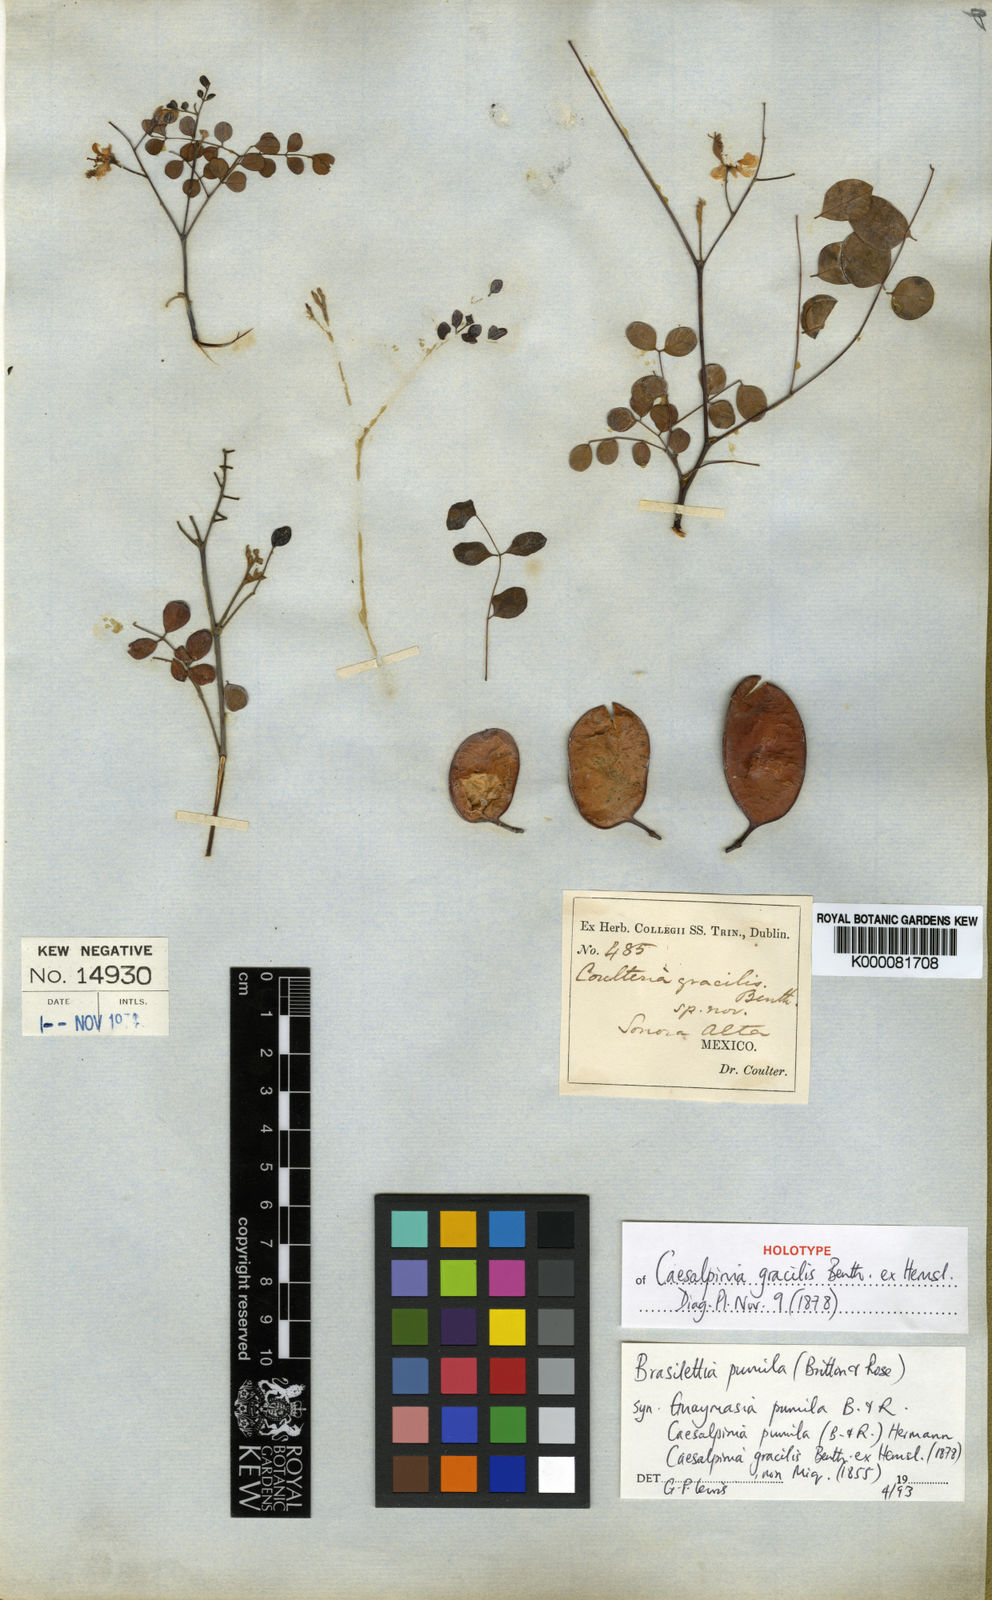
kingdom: Plantae
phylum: Tracheophyta
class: Magnoliopsida
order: Fabales
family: Fabaceae
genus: Coulteria
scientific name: Coulteria pumila
